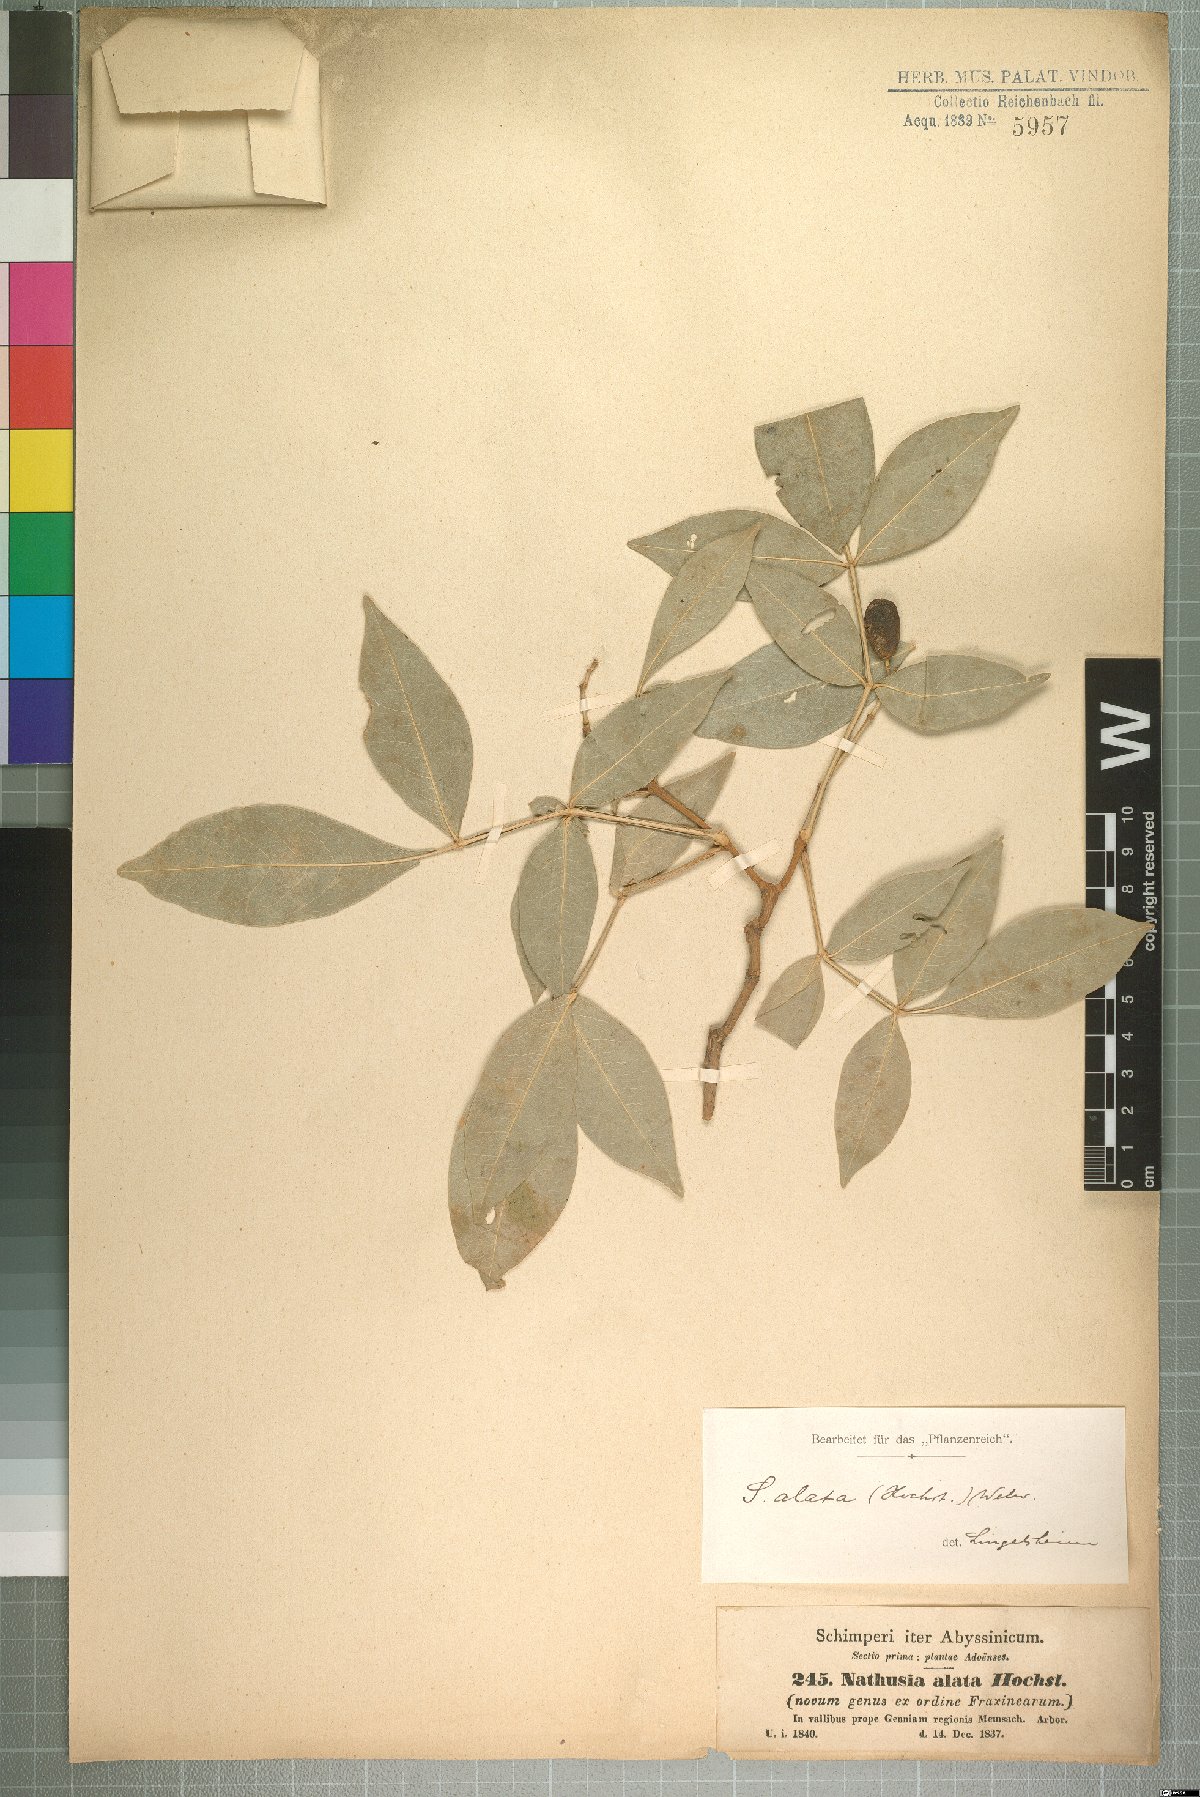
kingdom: Plantae
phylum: Tracheophyta
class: Magnoliopsida
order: Lamiales
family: Oleaceae
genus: Schrebera
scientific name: Schrebera alata
